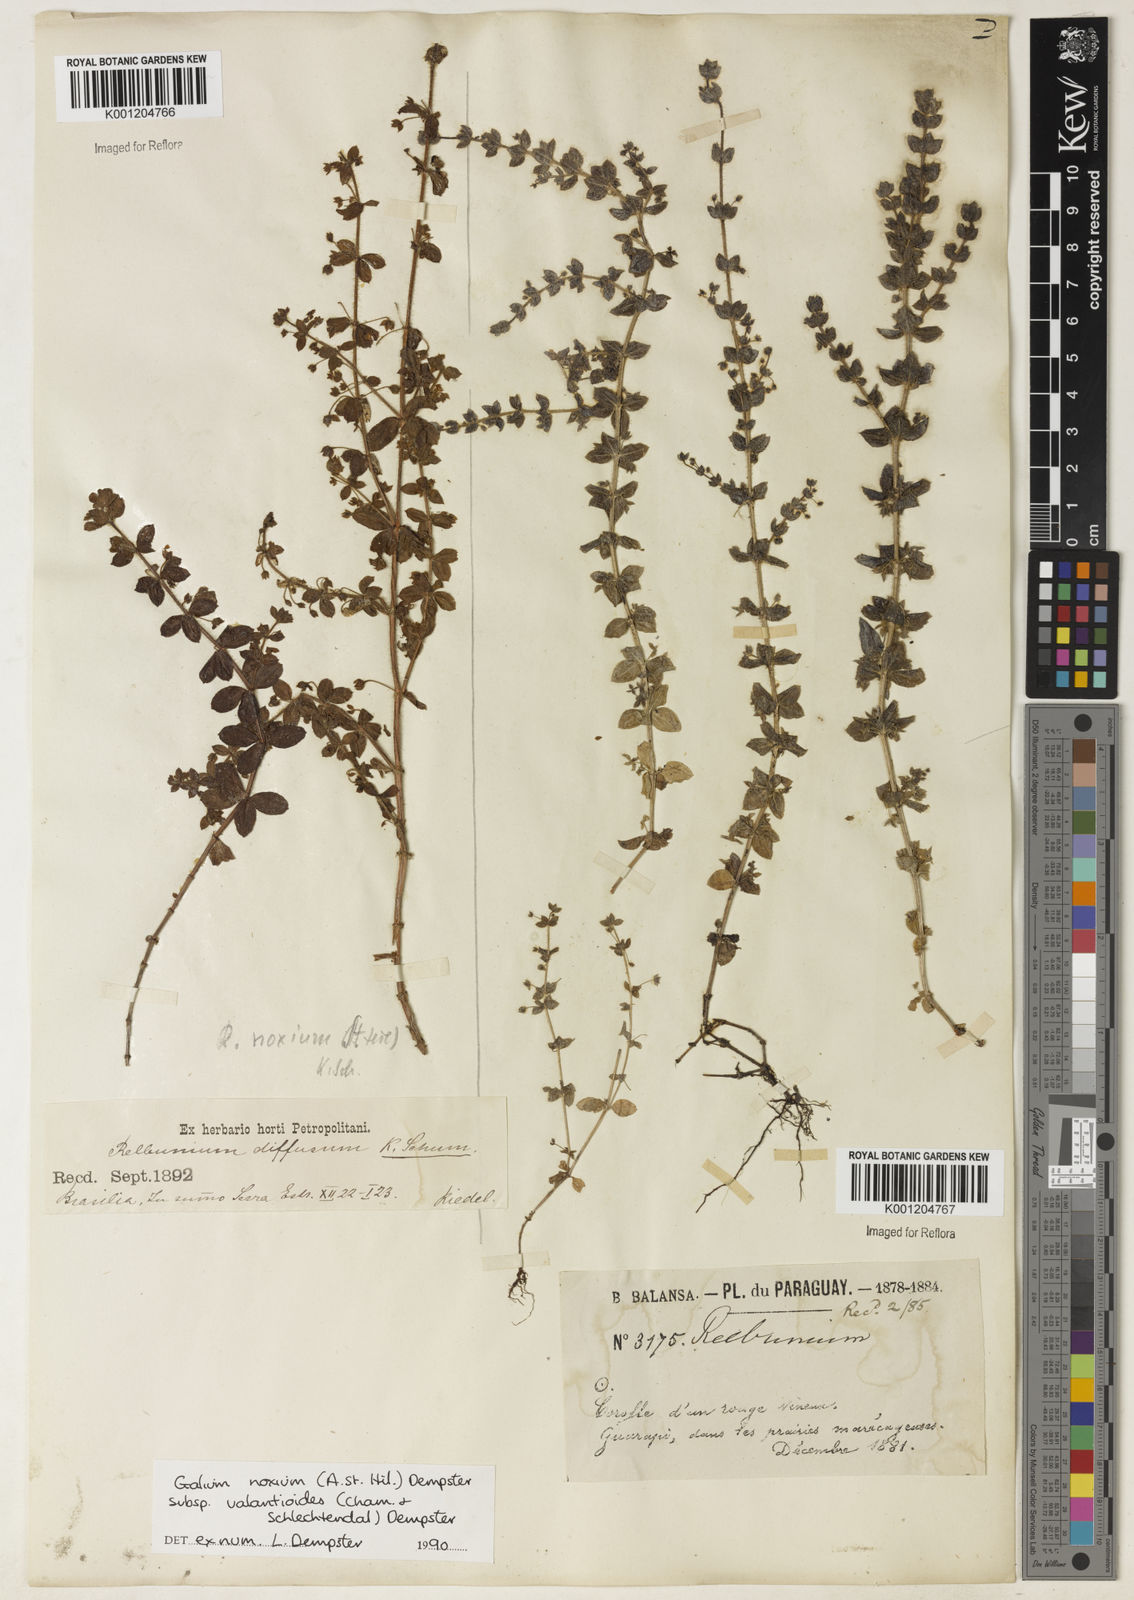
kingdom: Plantae
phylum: Tracheophyta
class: Magnoliopsida
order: Gentianales
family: Rubiaceae
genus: Galium
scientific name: Galium noxium
